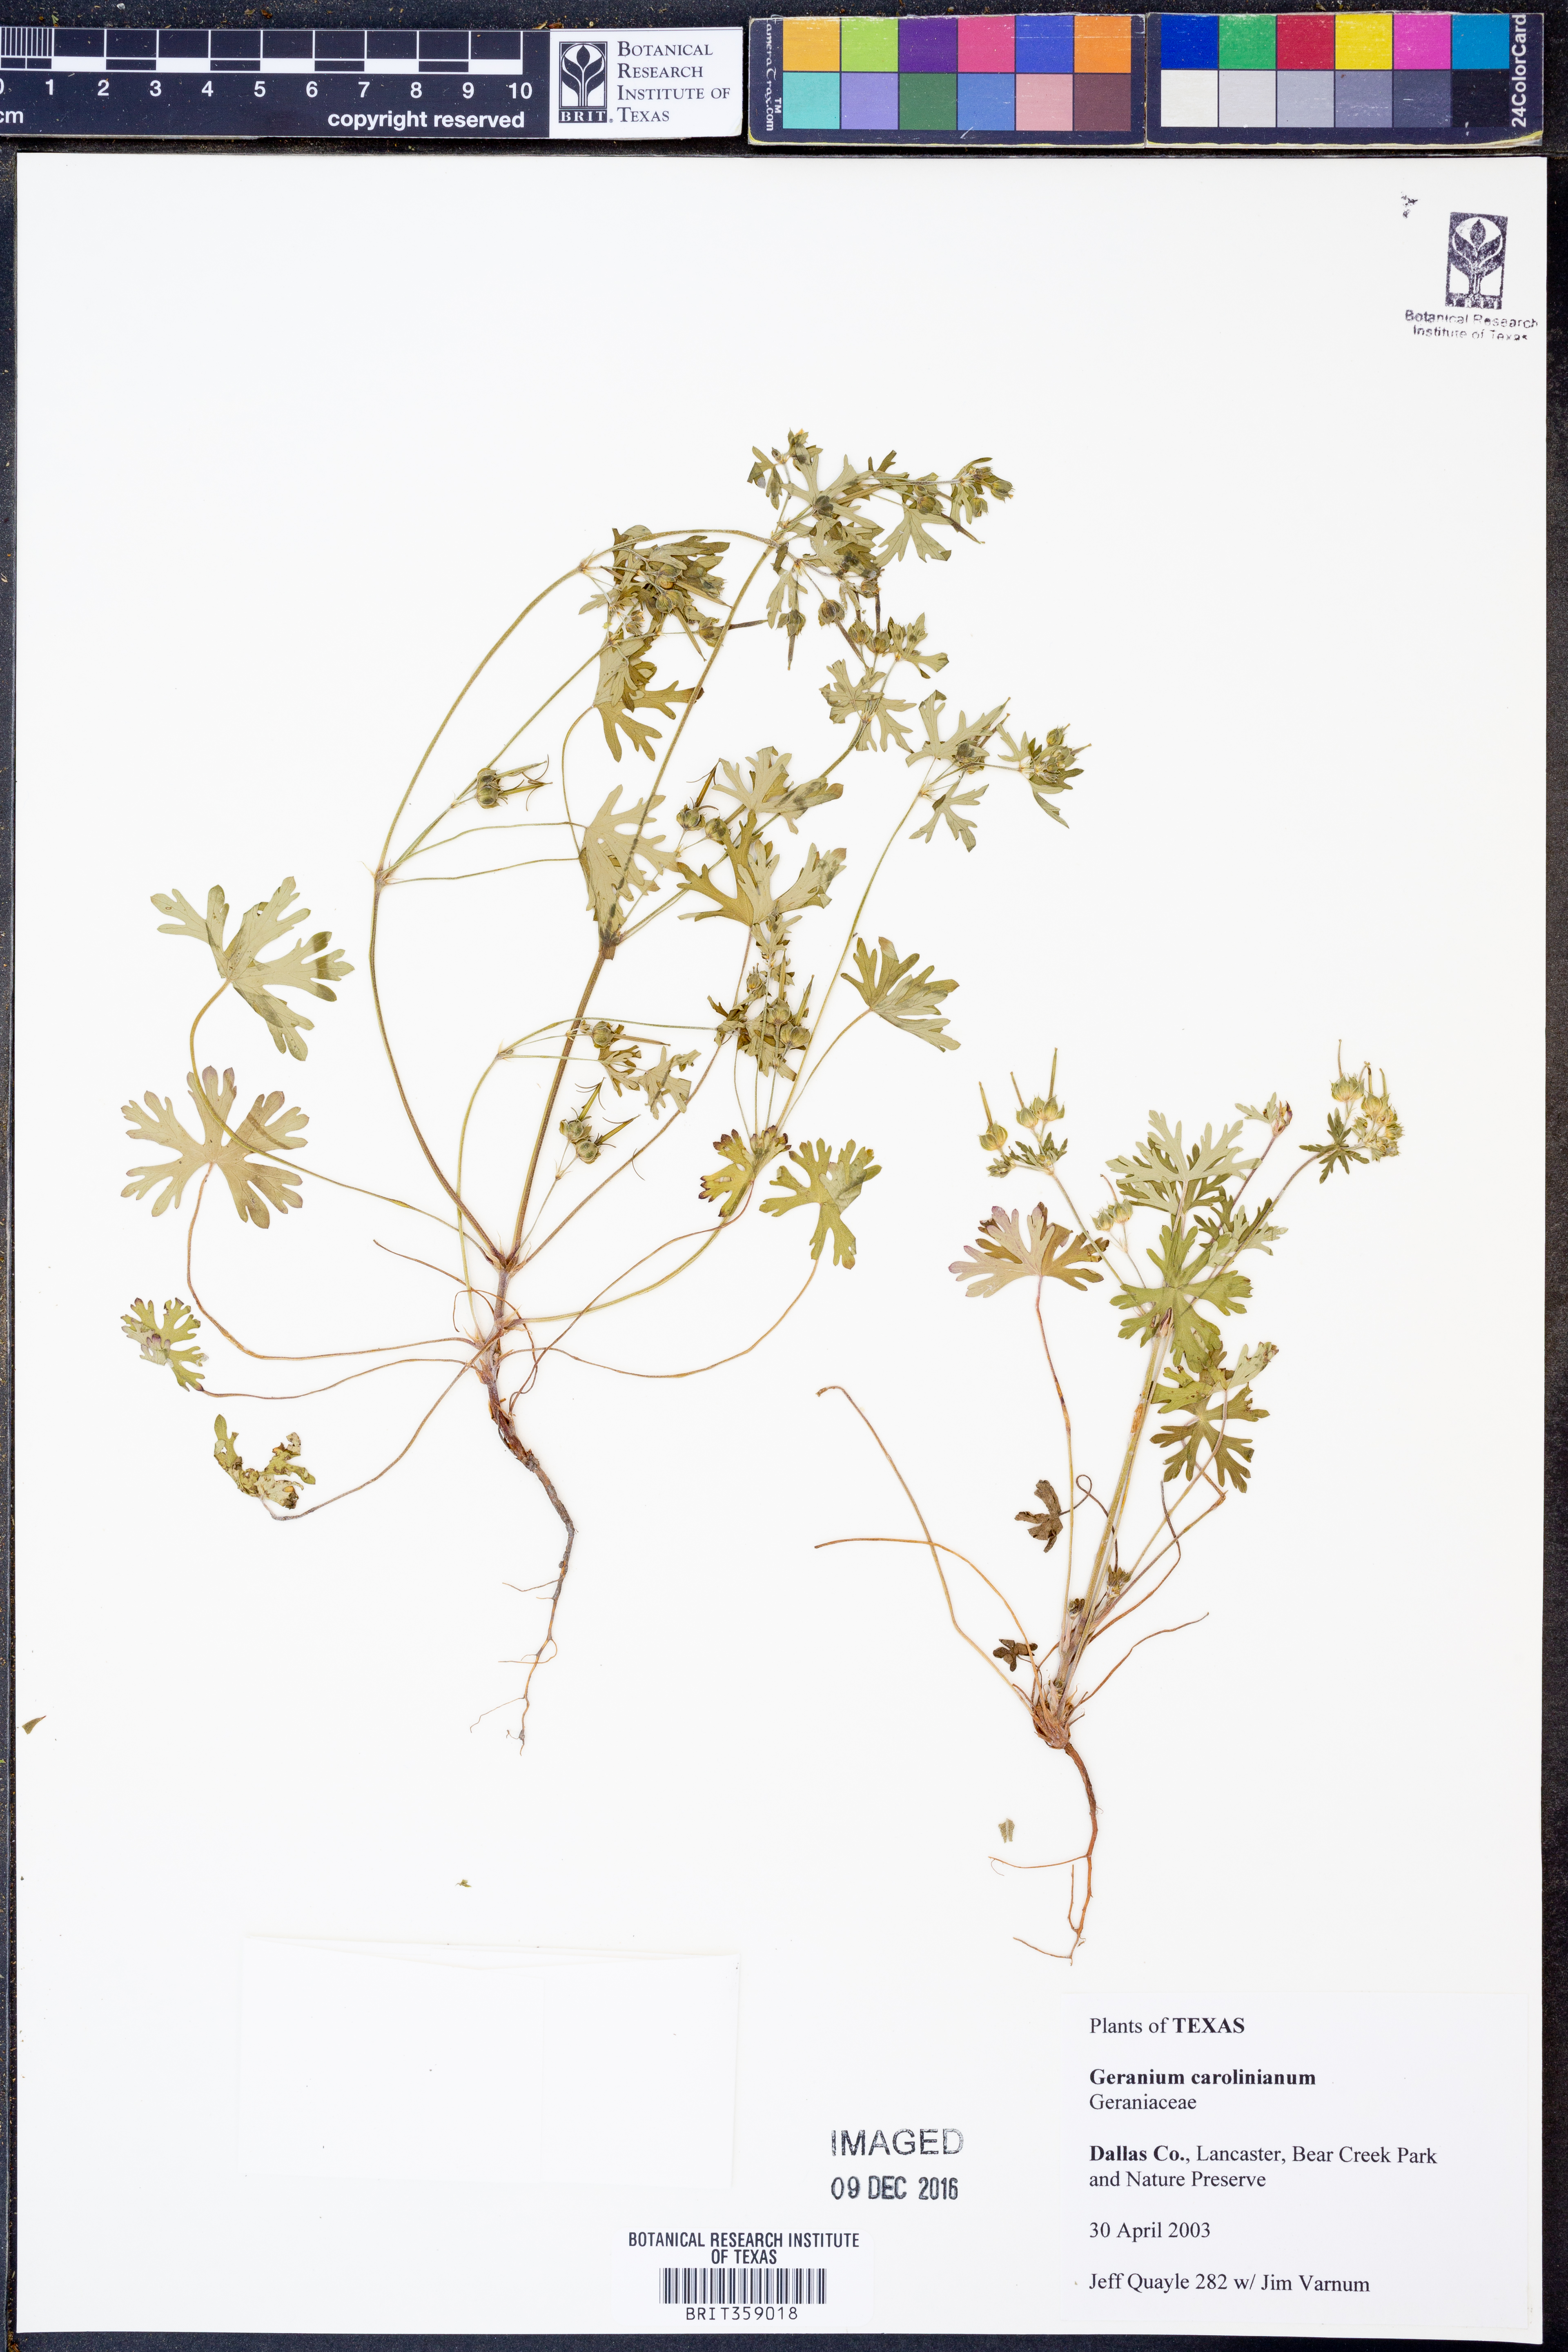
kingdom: Plantae
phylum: Tracheophyta
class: Magnoliopsida
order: Geraniales
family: Geraniaceae
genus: Geranium
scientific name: Geranium carolinianum
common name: Carolina crane's-bill
